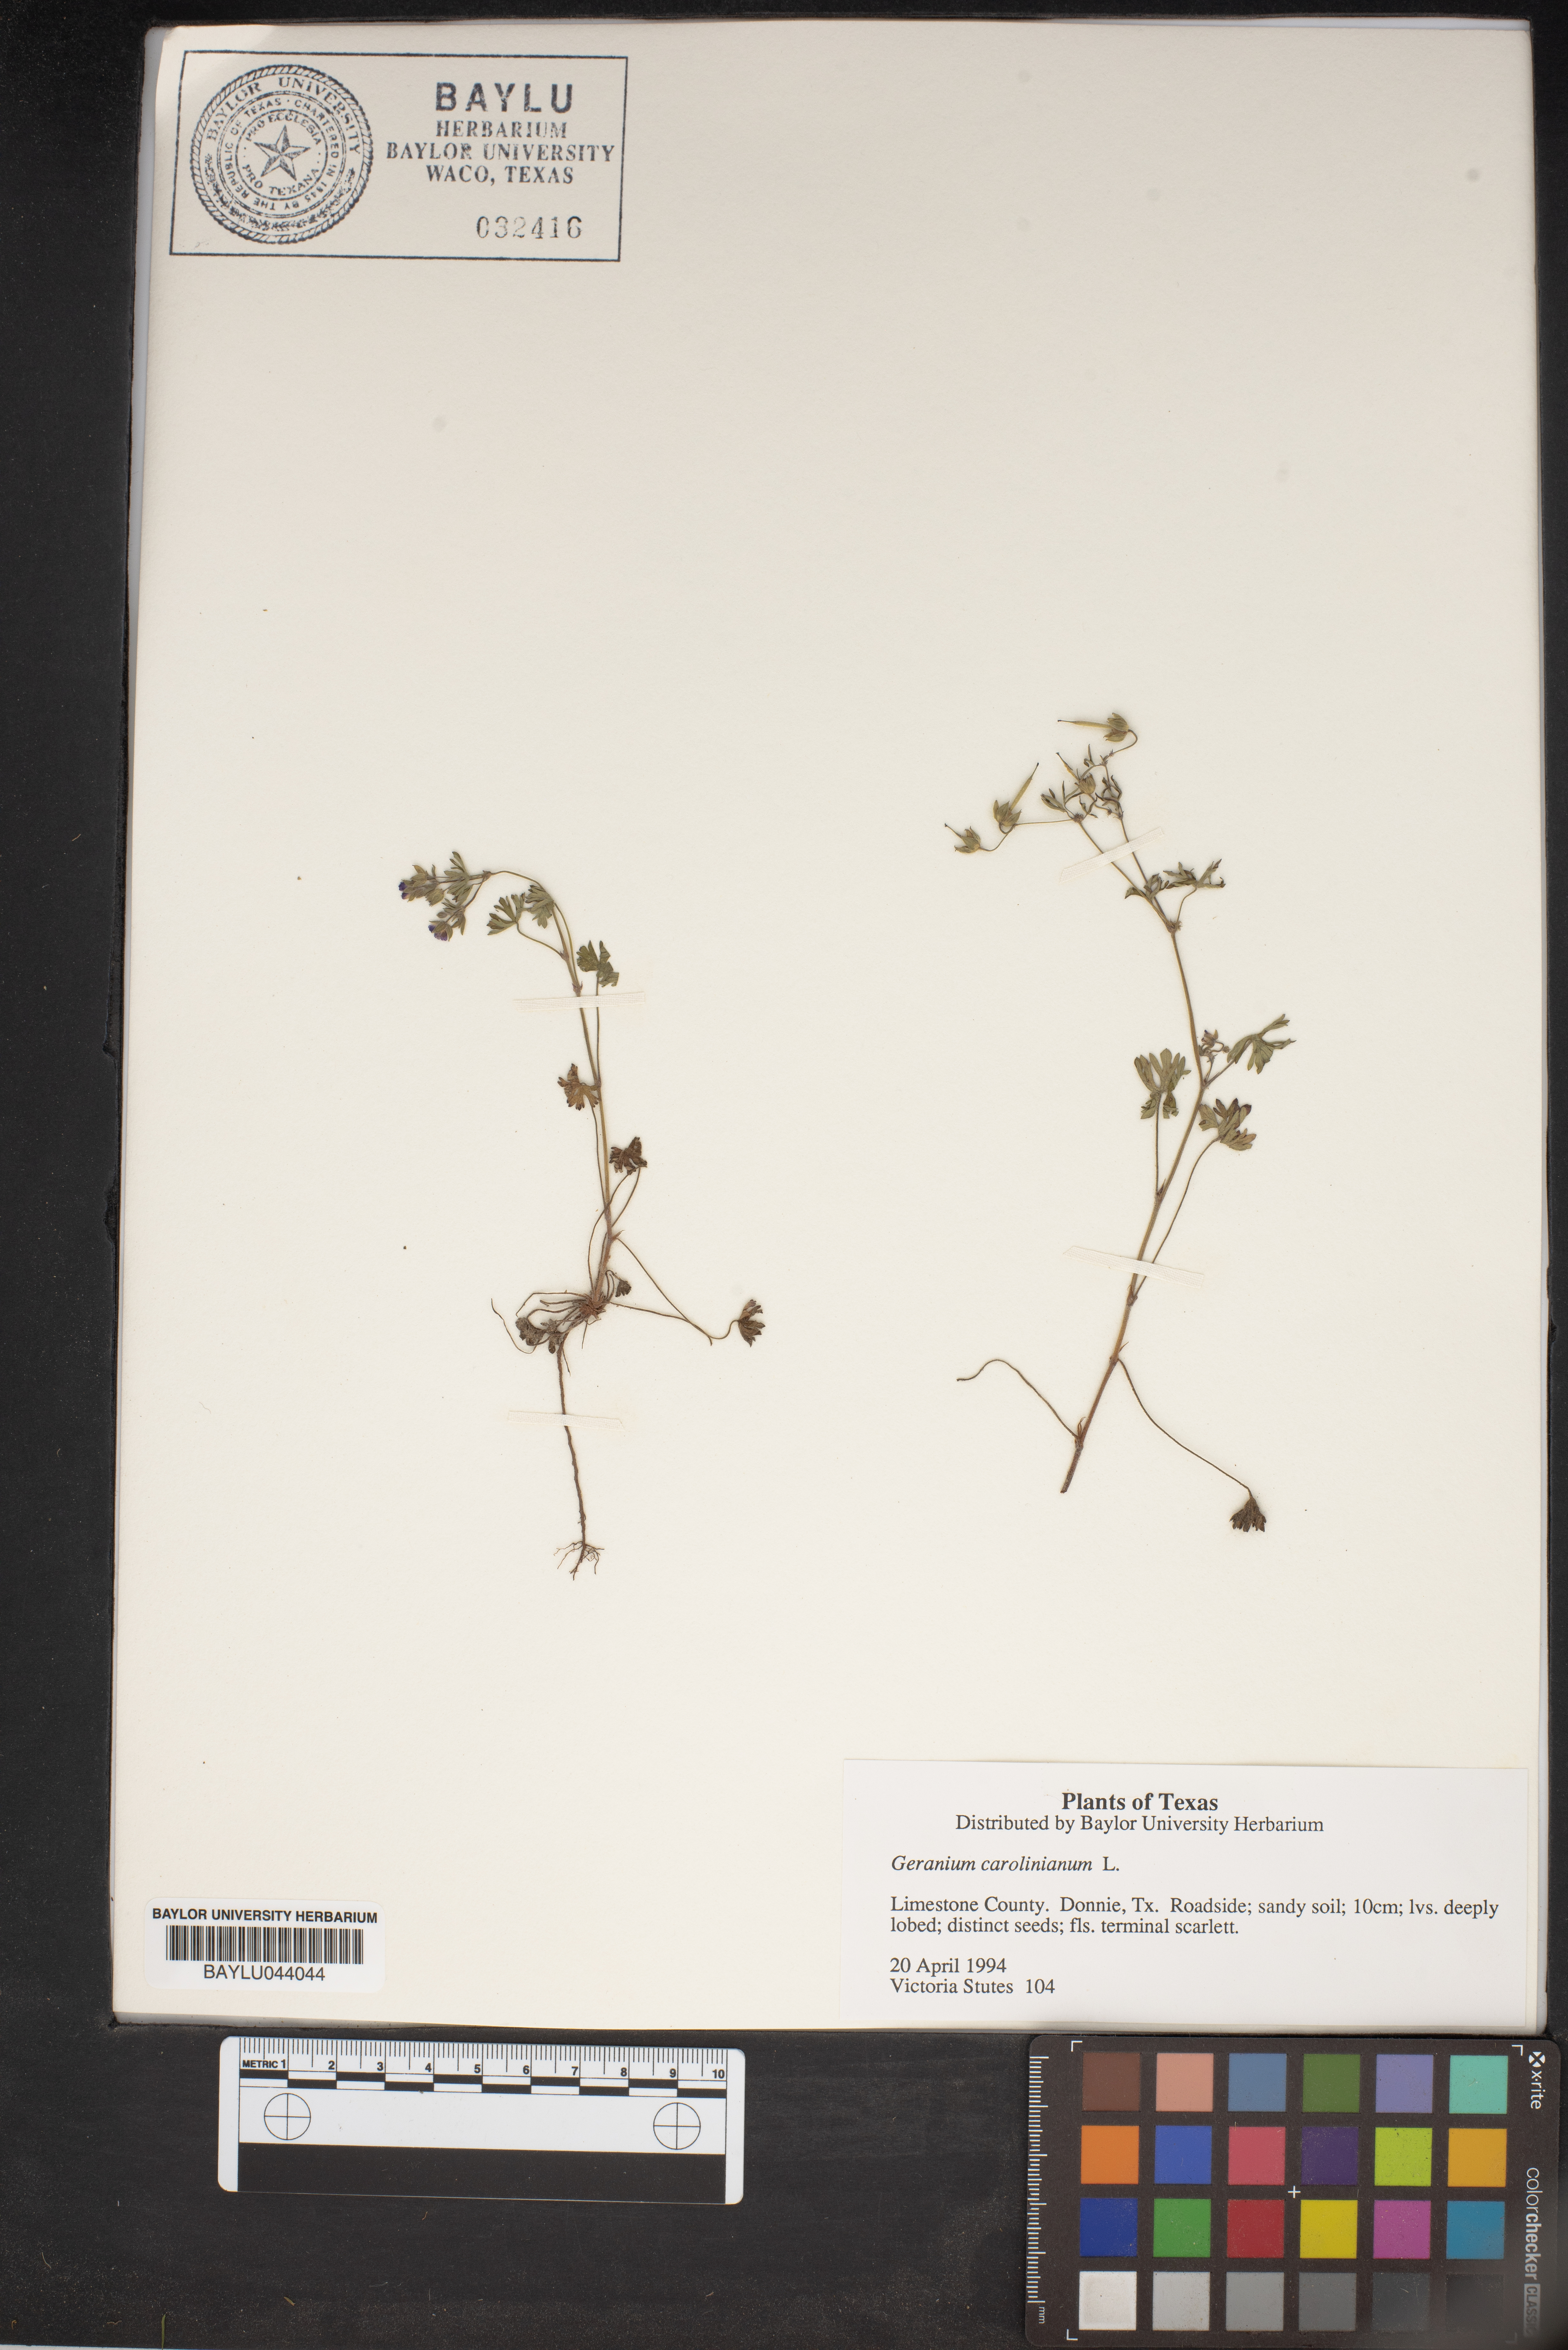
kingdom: Plantae
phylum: Tracheophyta
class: Magnoliopsida
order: Geraniales
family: Geraniaceae
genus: Geranium
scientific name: Geranium carolinianum
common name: Carolina crane's-bill
